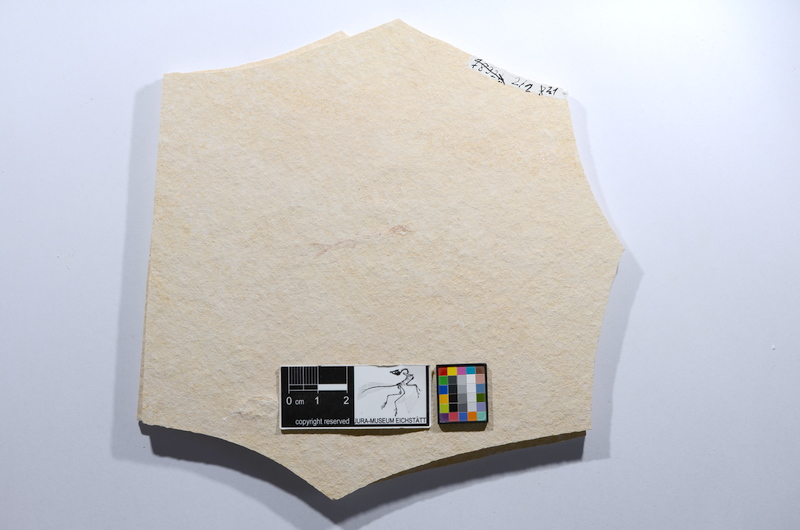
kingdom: Animalia
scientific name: Animalia
